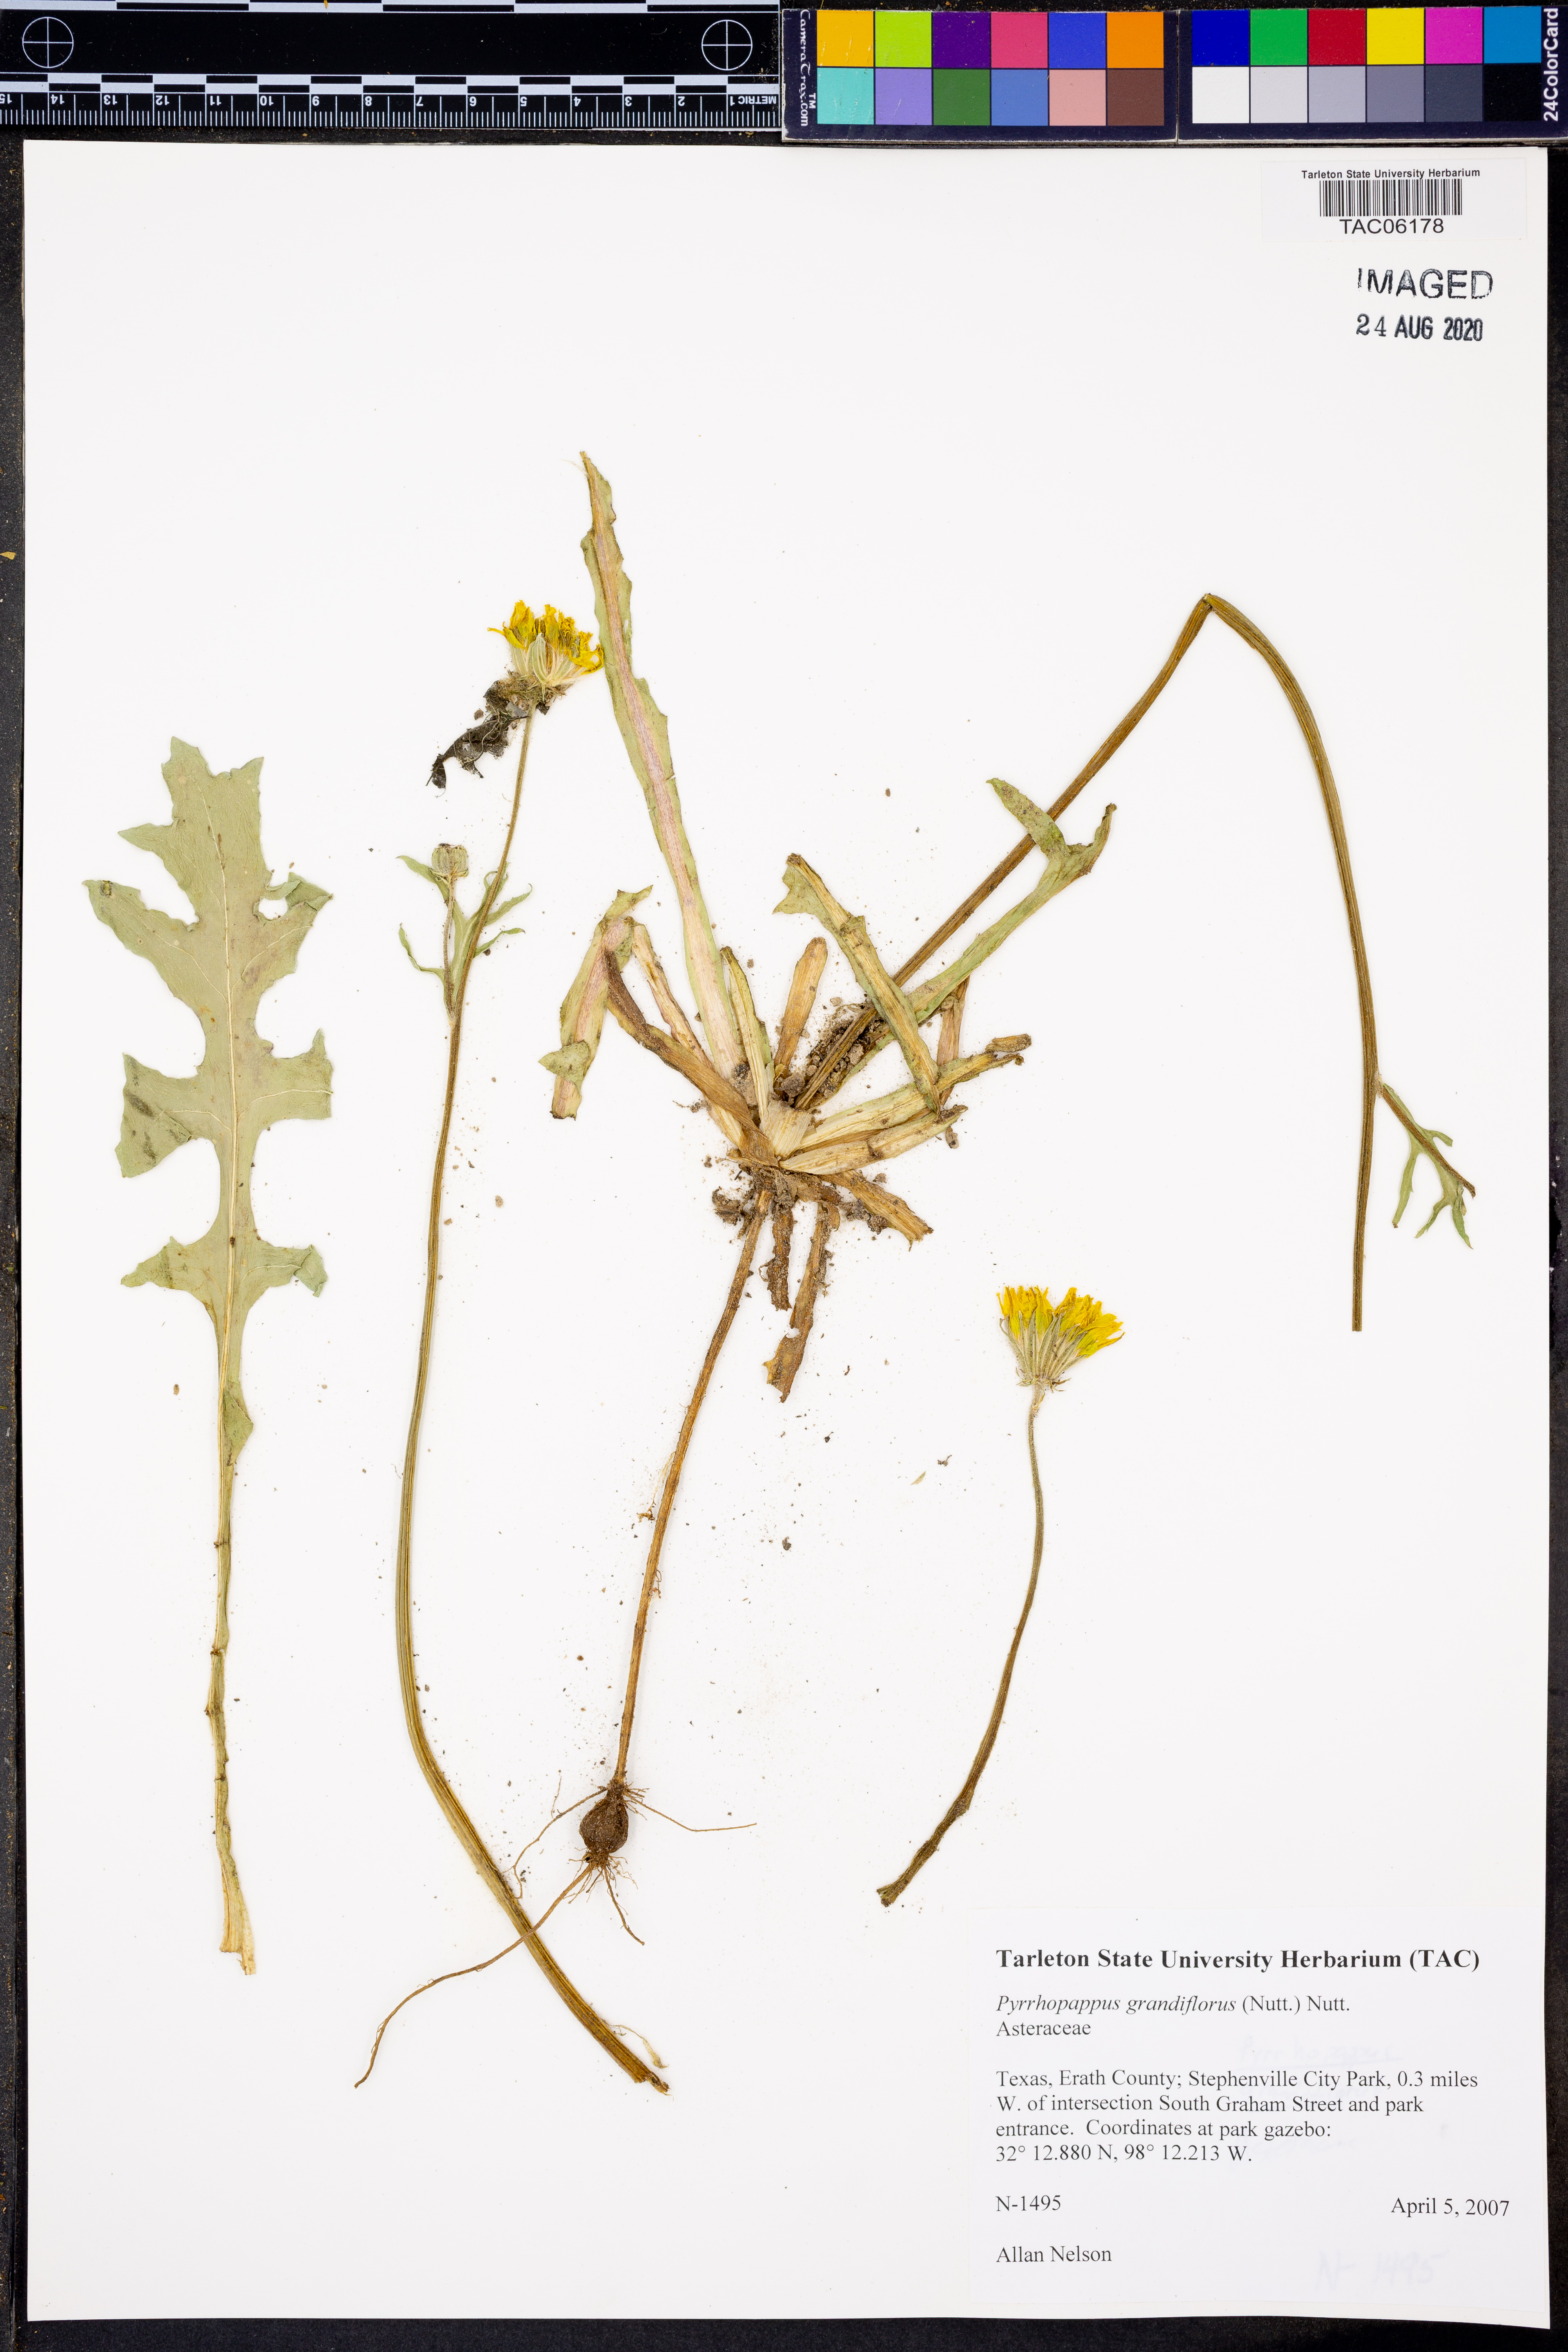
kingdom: Plantae
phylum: Tracheophyta
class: Magnoliopsida
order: Asterales
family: Asteraceae
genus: Pyrrhopappus
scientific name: Pyrrhopappus grandiflorus
